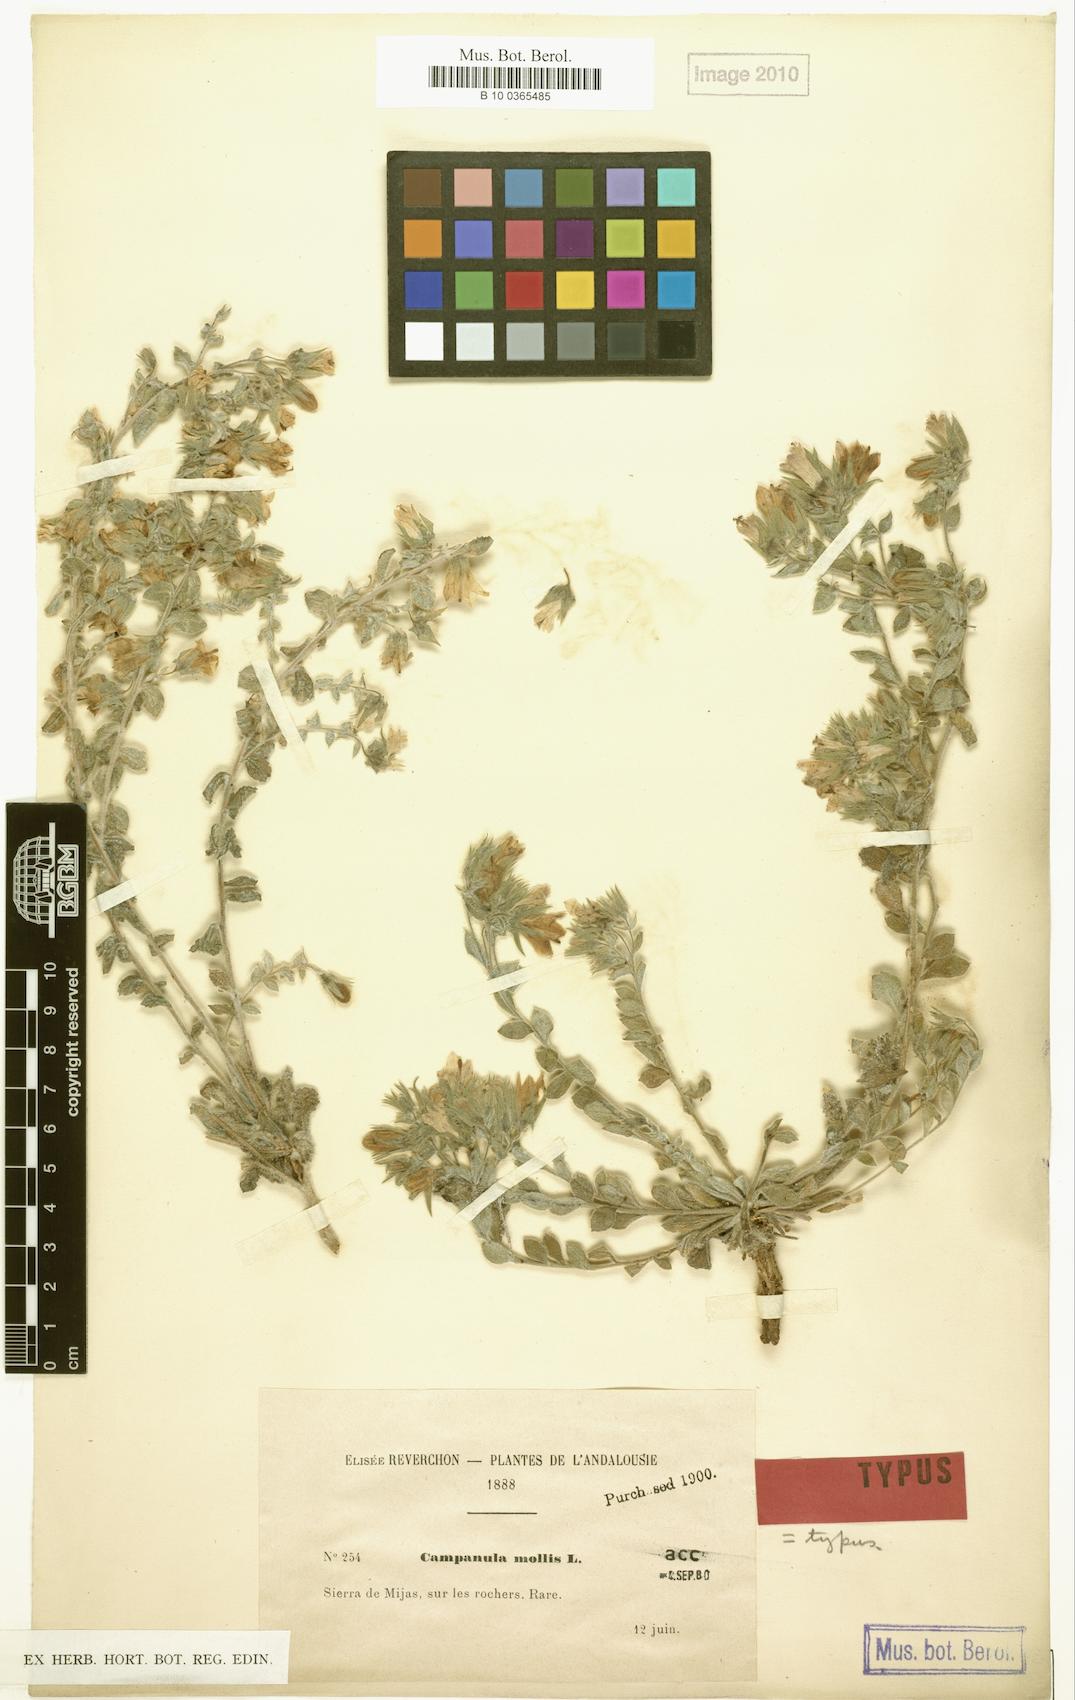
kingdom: Plantae
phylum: Tracheophyta
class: Magnoliopsida
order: Asterales
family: Campanulaceae
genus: Campanula
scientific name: Campanula mollis
